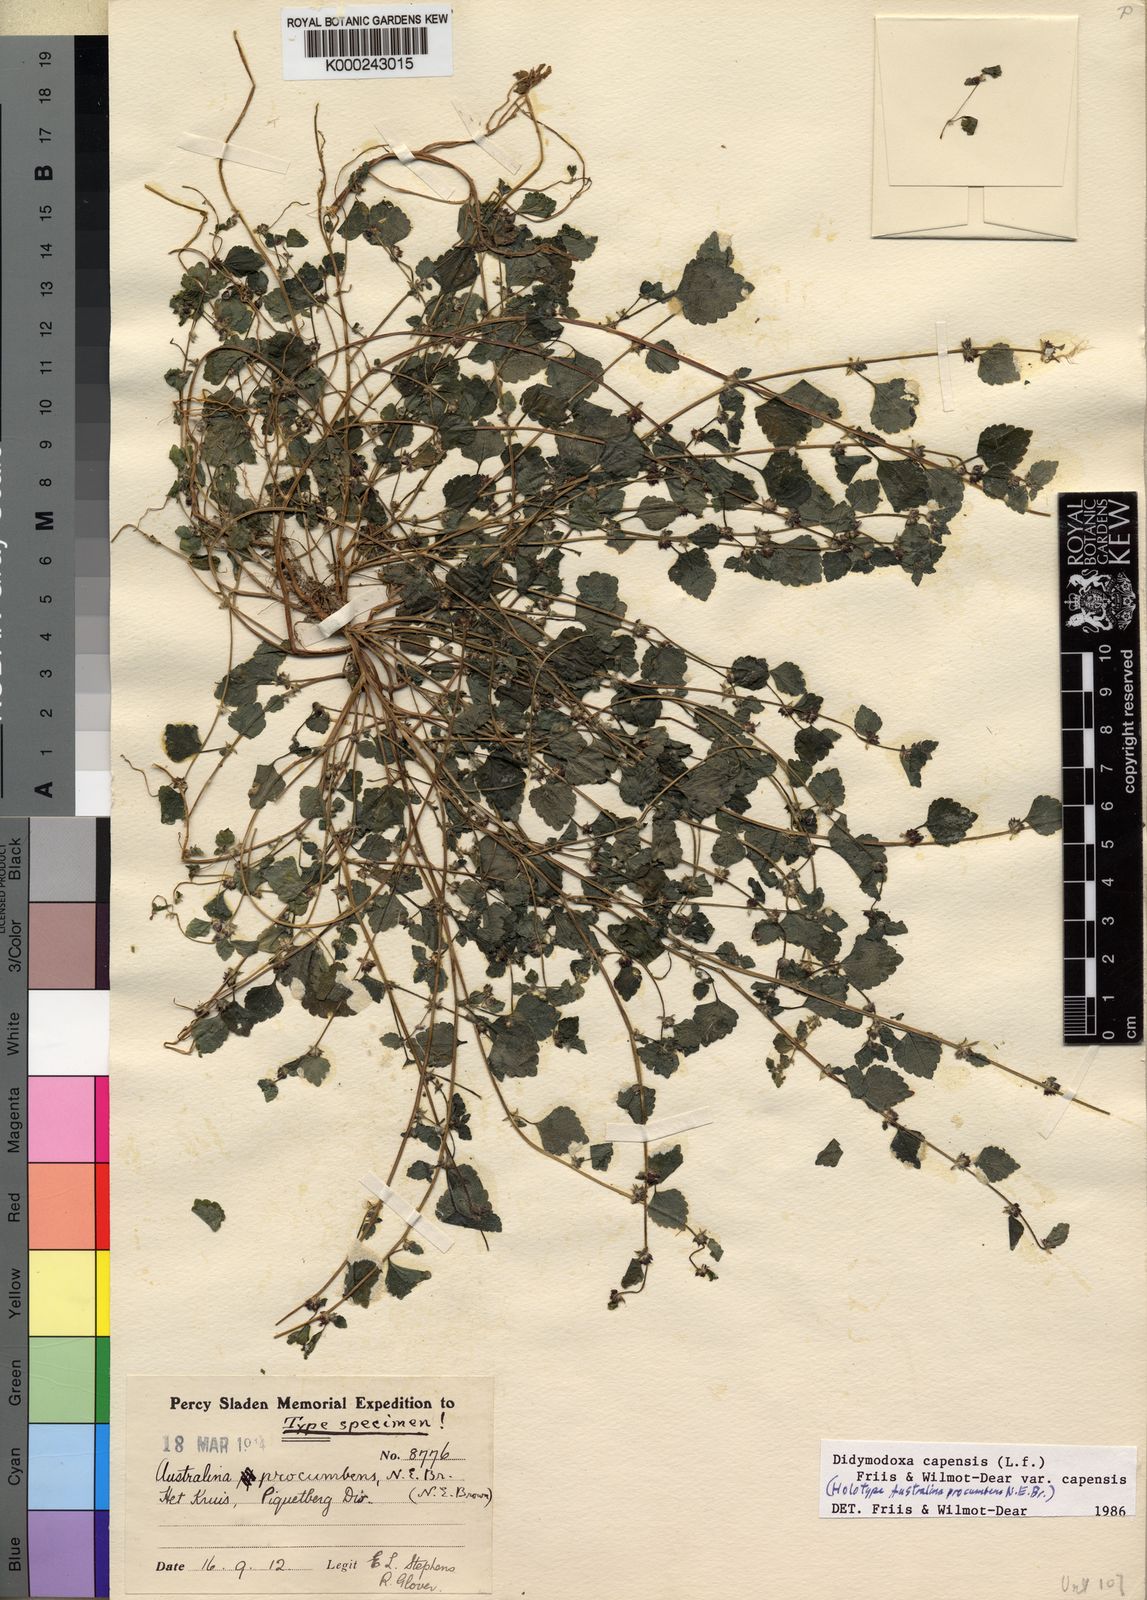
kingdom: Plantae
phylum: Tracheophyta
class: Magnoliopsida
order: Rosales
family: Urticaceae
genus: Didymodoxa
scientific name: Didymodoxa capensis
